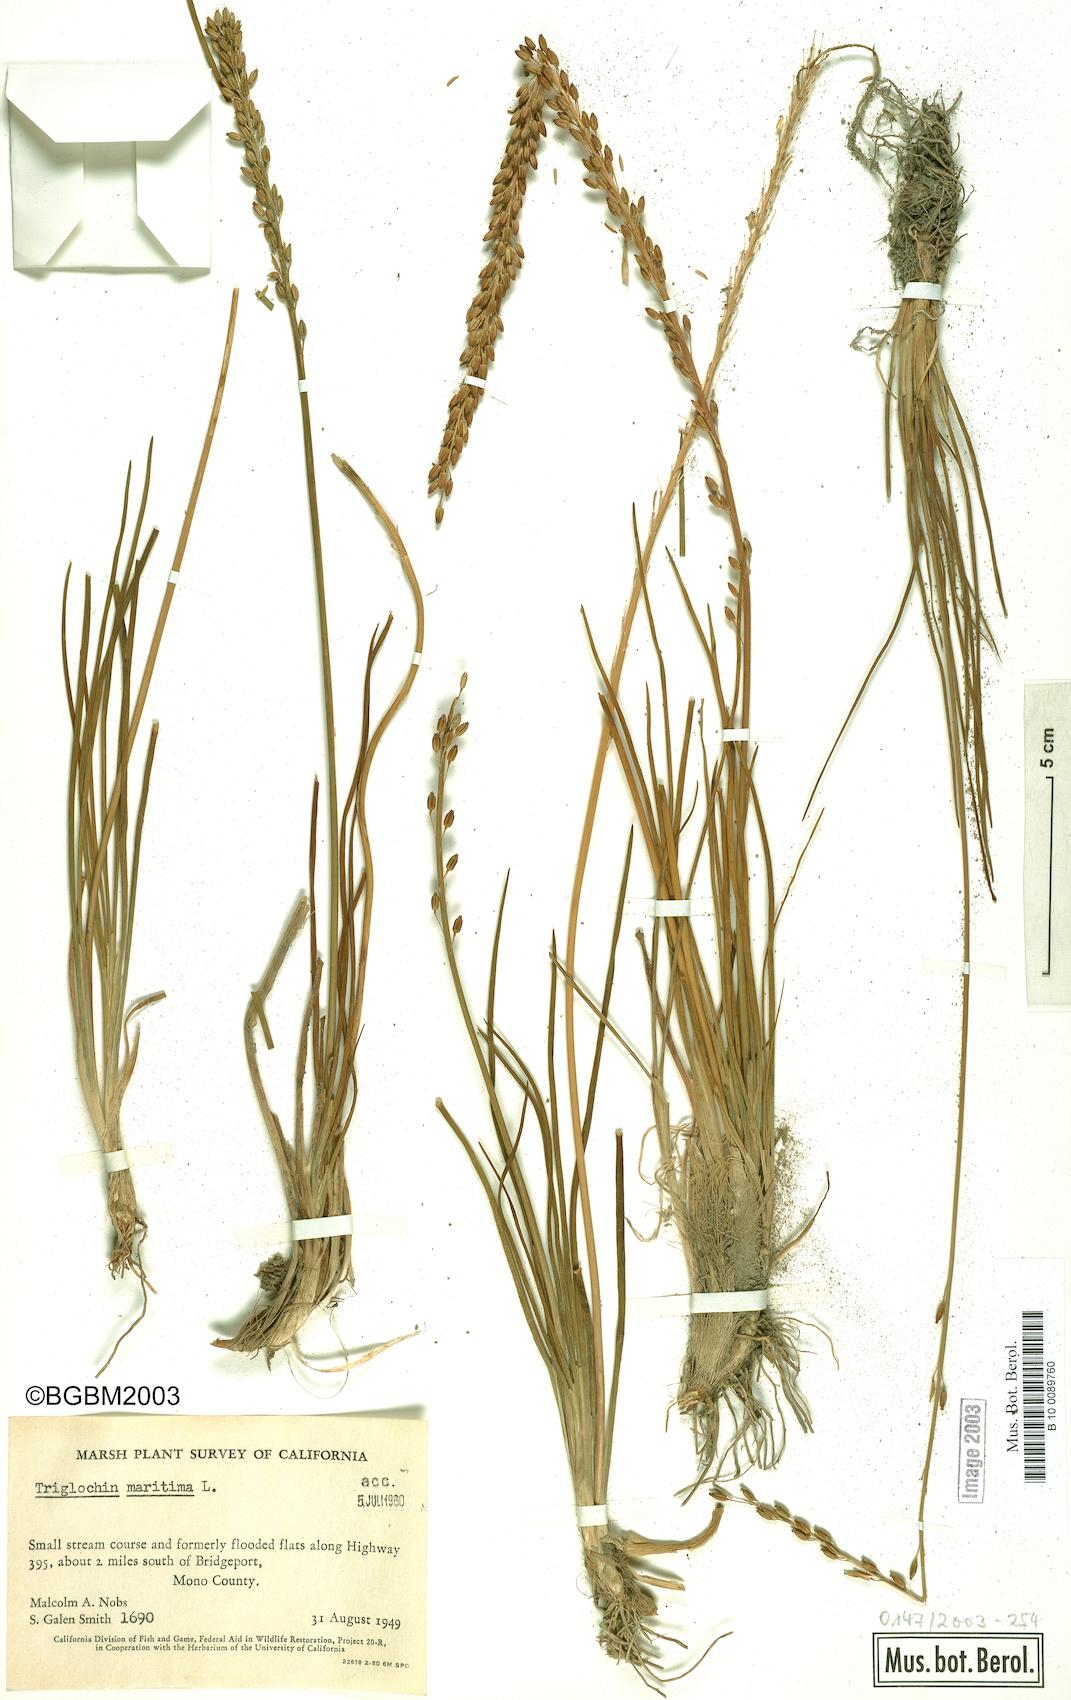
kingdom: Plantae
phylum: Tracheophyta
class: Liliopsida
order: Alismatales
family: Juncaginaceae
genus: Triglochin
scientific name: Triglochin maritima
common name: Sea arrowgrass
